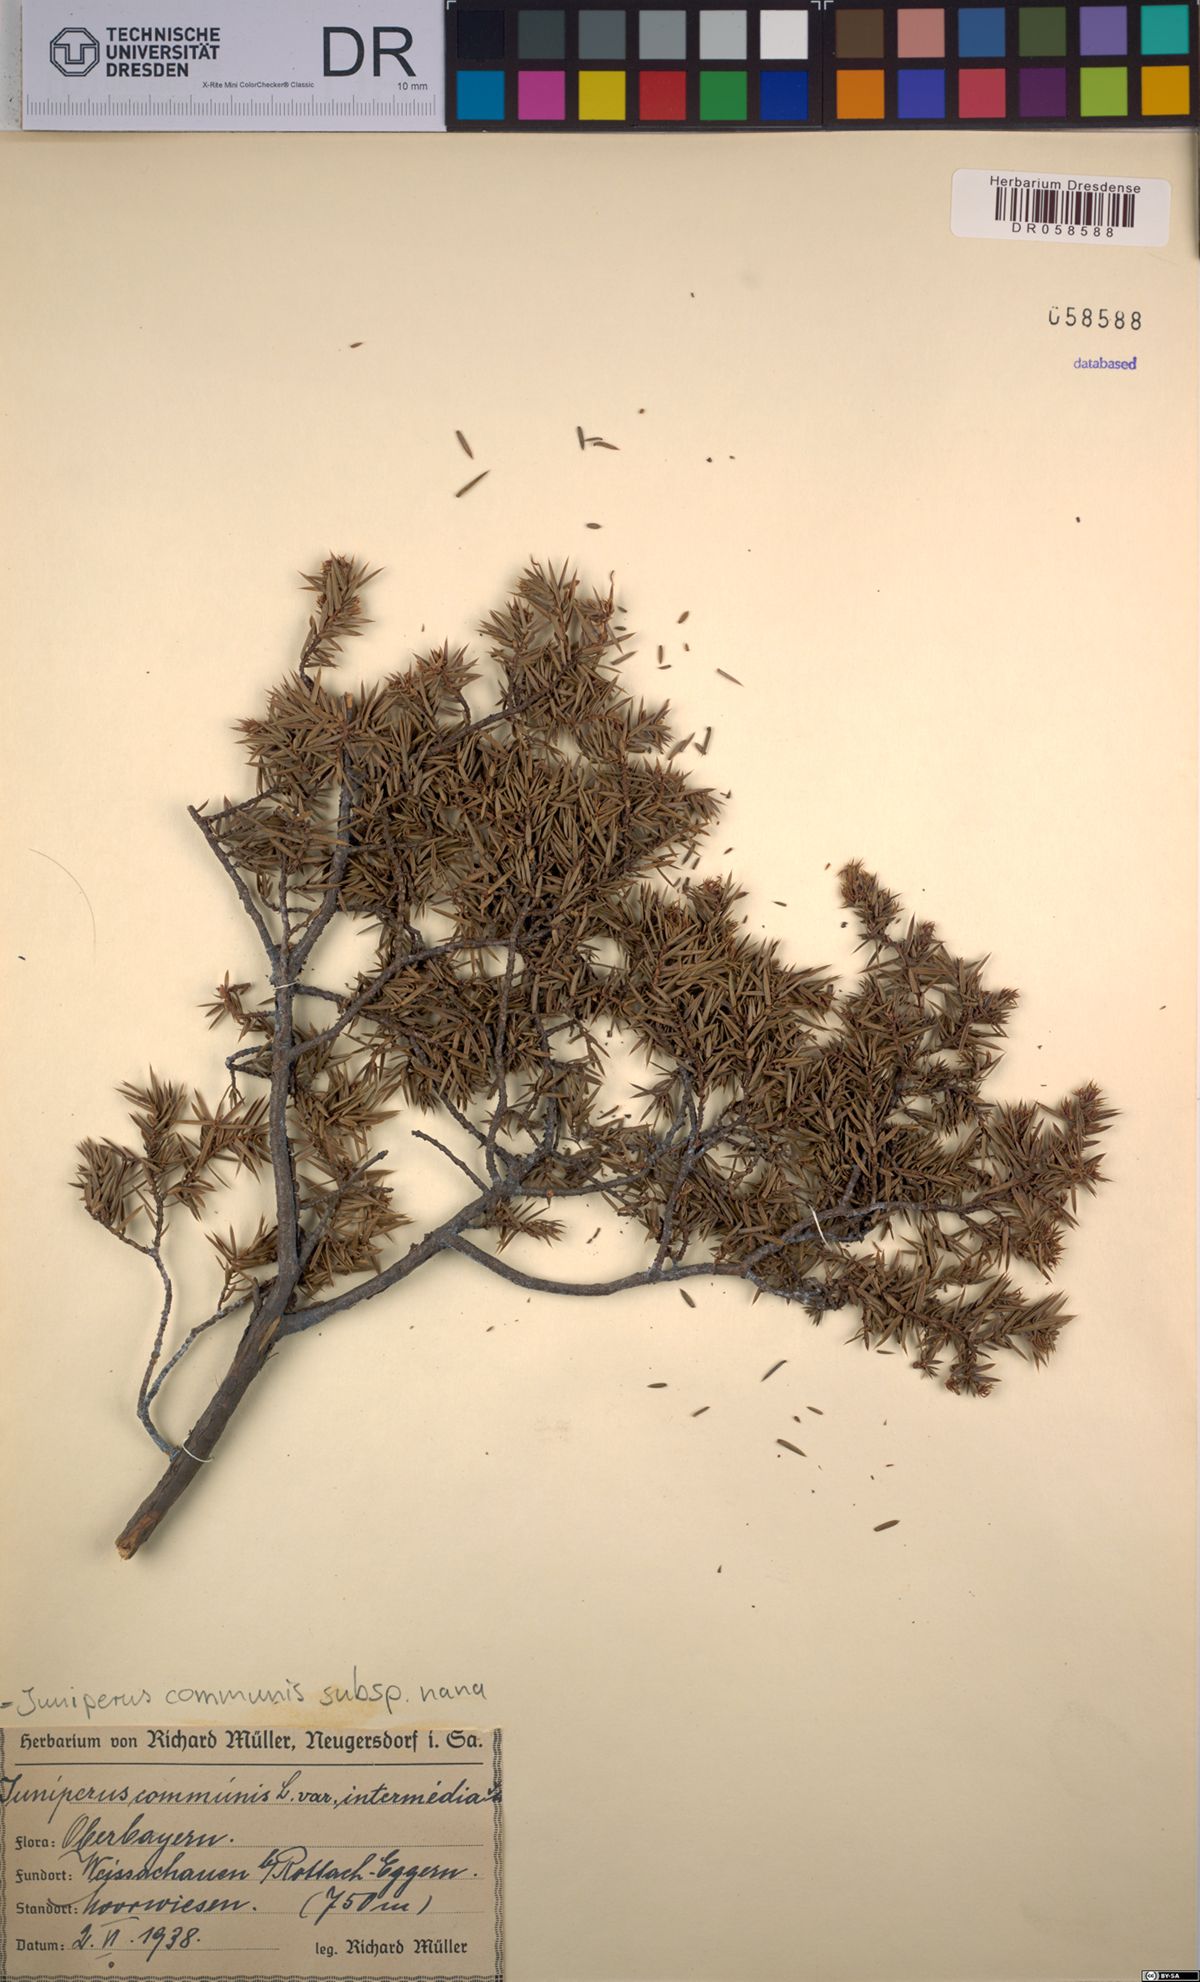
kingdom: Plantae
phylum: Tracheophyta
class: Pinopsida
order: Pinales
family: Cupressaceae
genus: Juniperus
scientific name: Juniperus communis
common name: Common juniper
